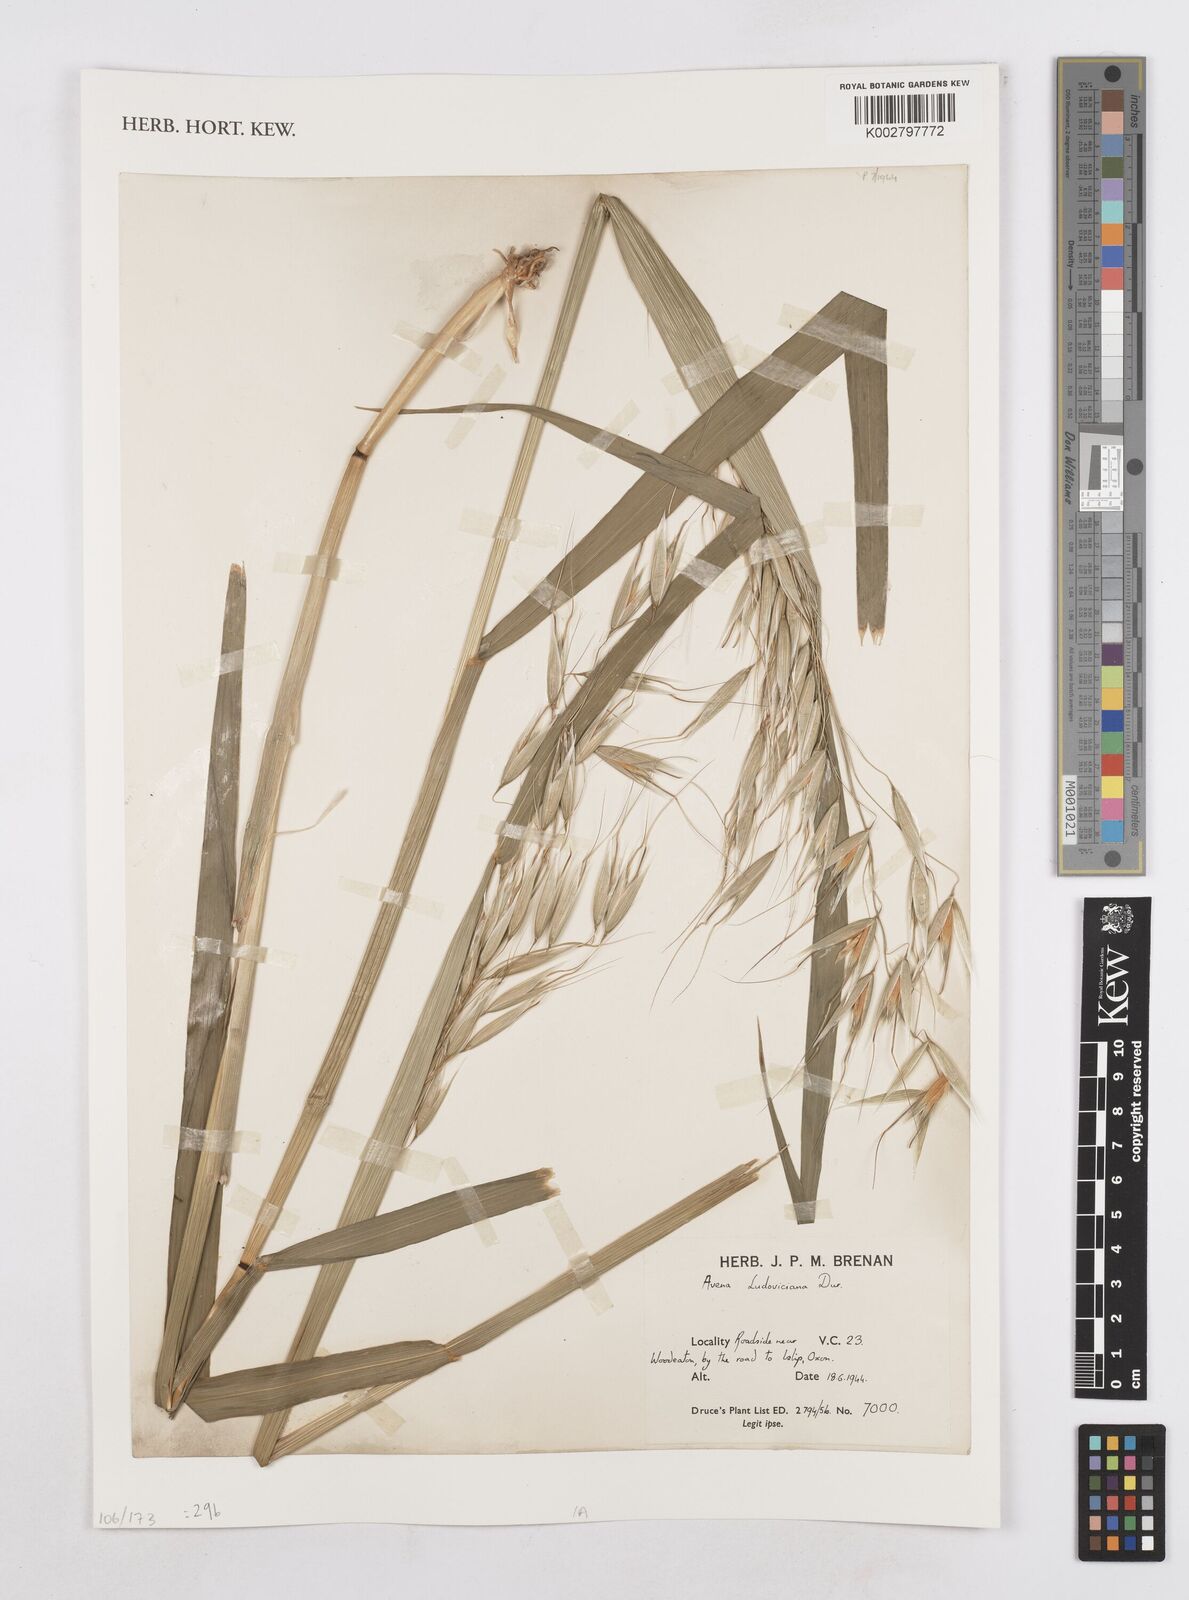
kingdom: Plantae
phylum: Tracheophyta
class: Liliopsida
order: Poales
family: Poaceae
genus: Avena
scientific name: Avena sterilis
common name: Animated oat
